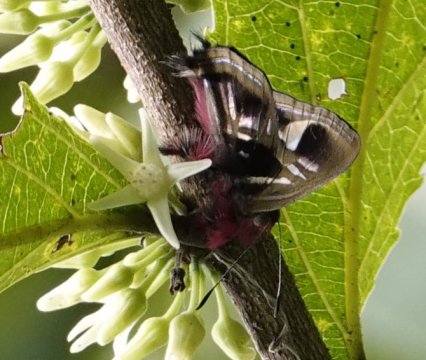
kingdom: Animalia
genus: Anteros
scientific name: Anteros renaldus
